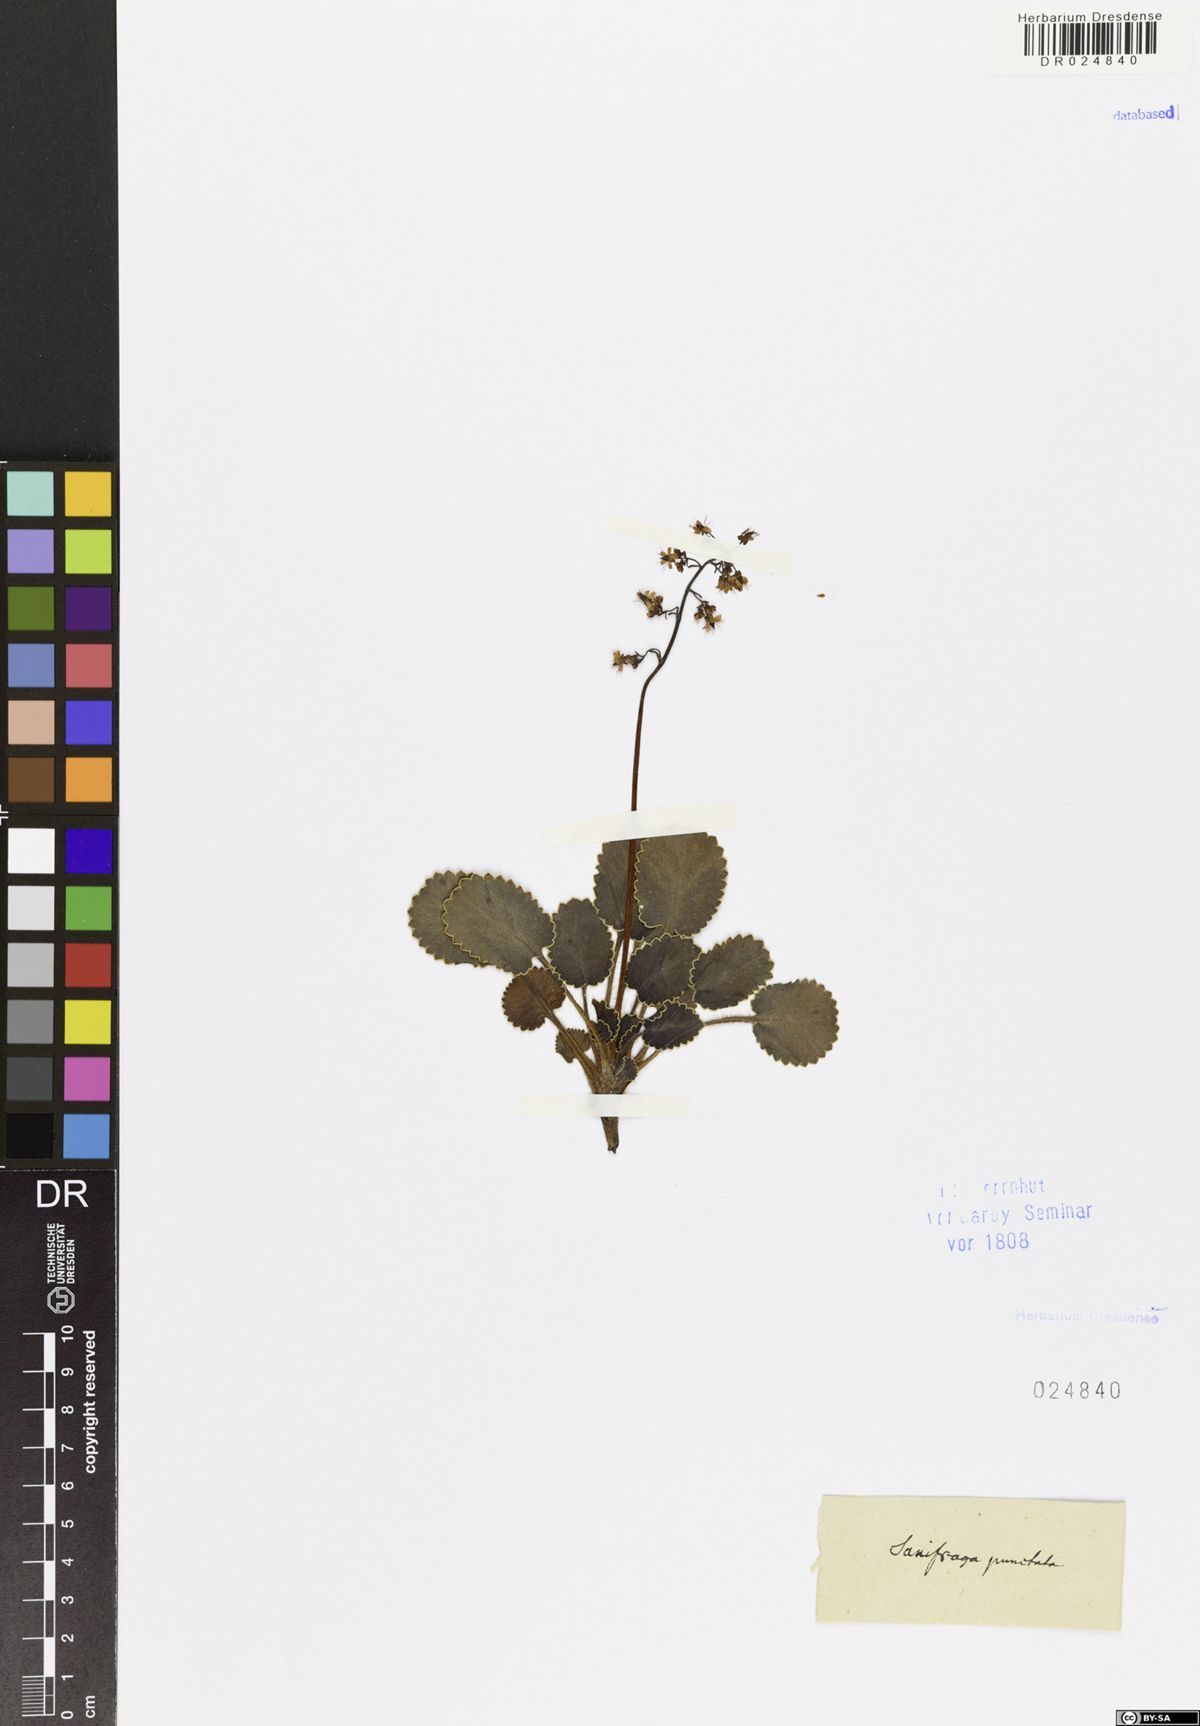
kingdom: Plantae
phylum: Tracheophyta
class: Magnoliopsida
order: Saxifragales
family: Saxifragaceae
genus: Micranthes
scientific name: Micranthes punctata
